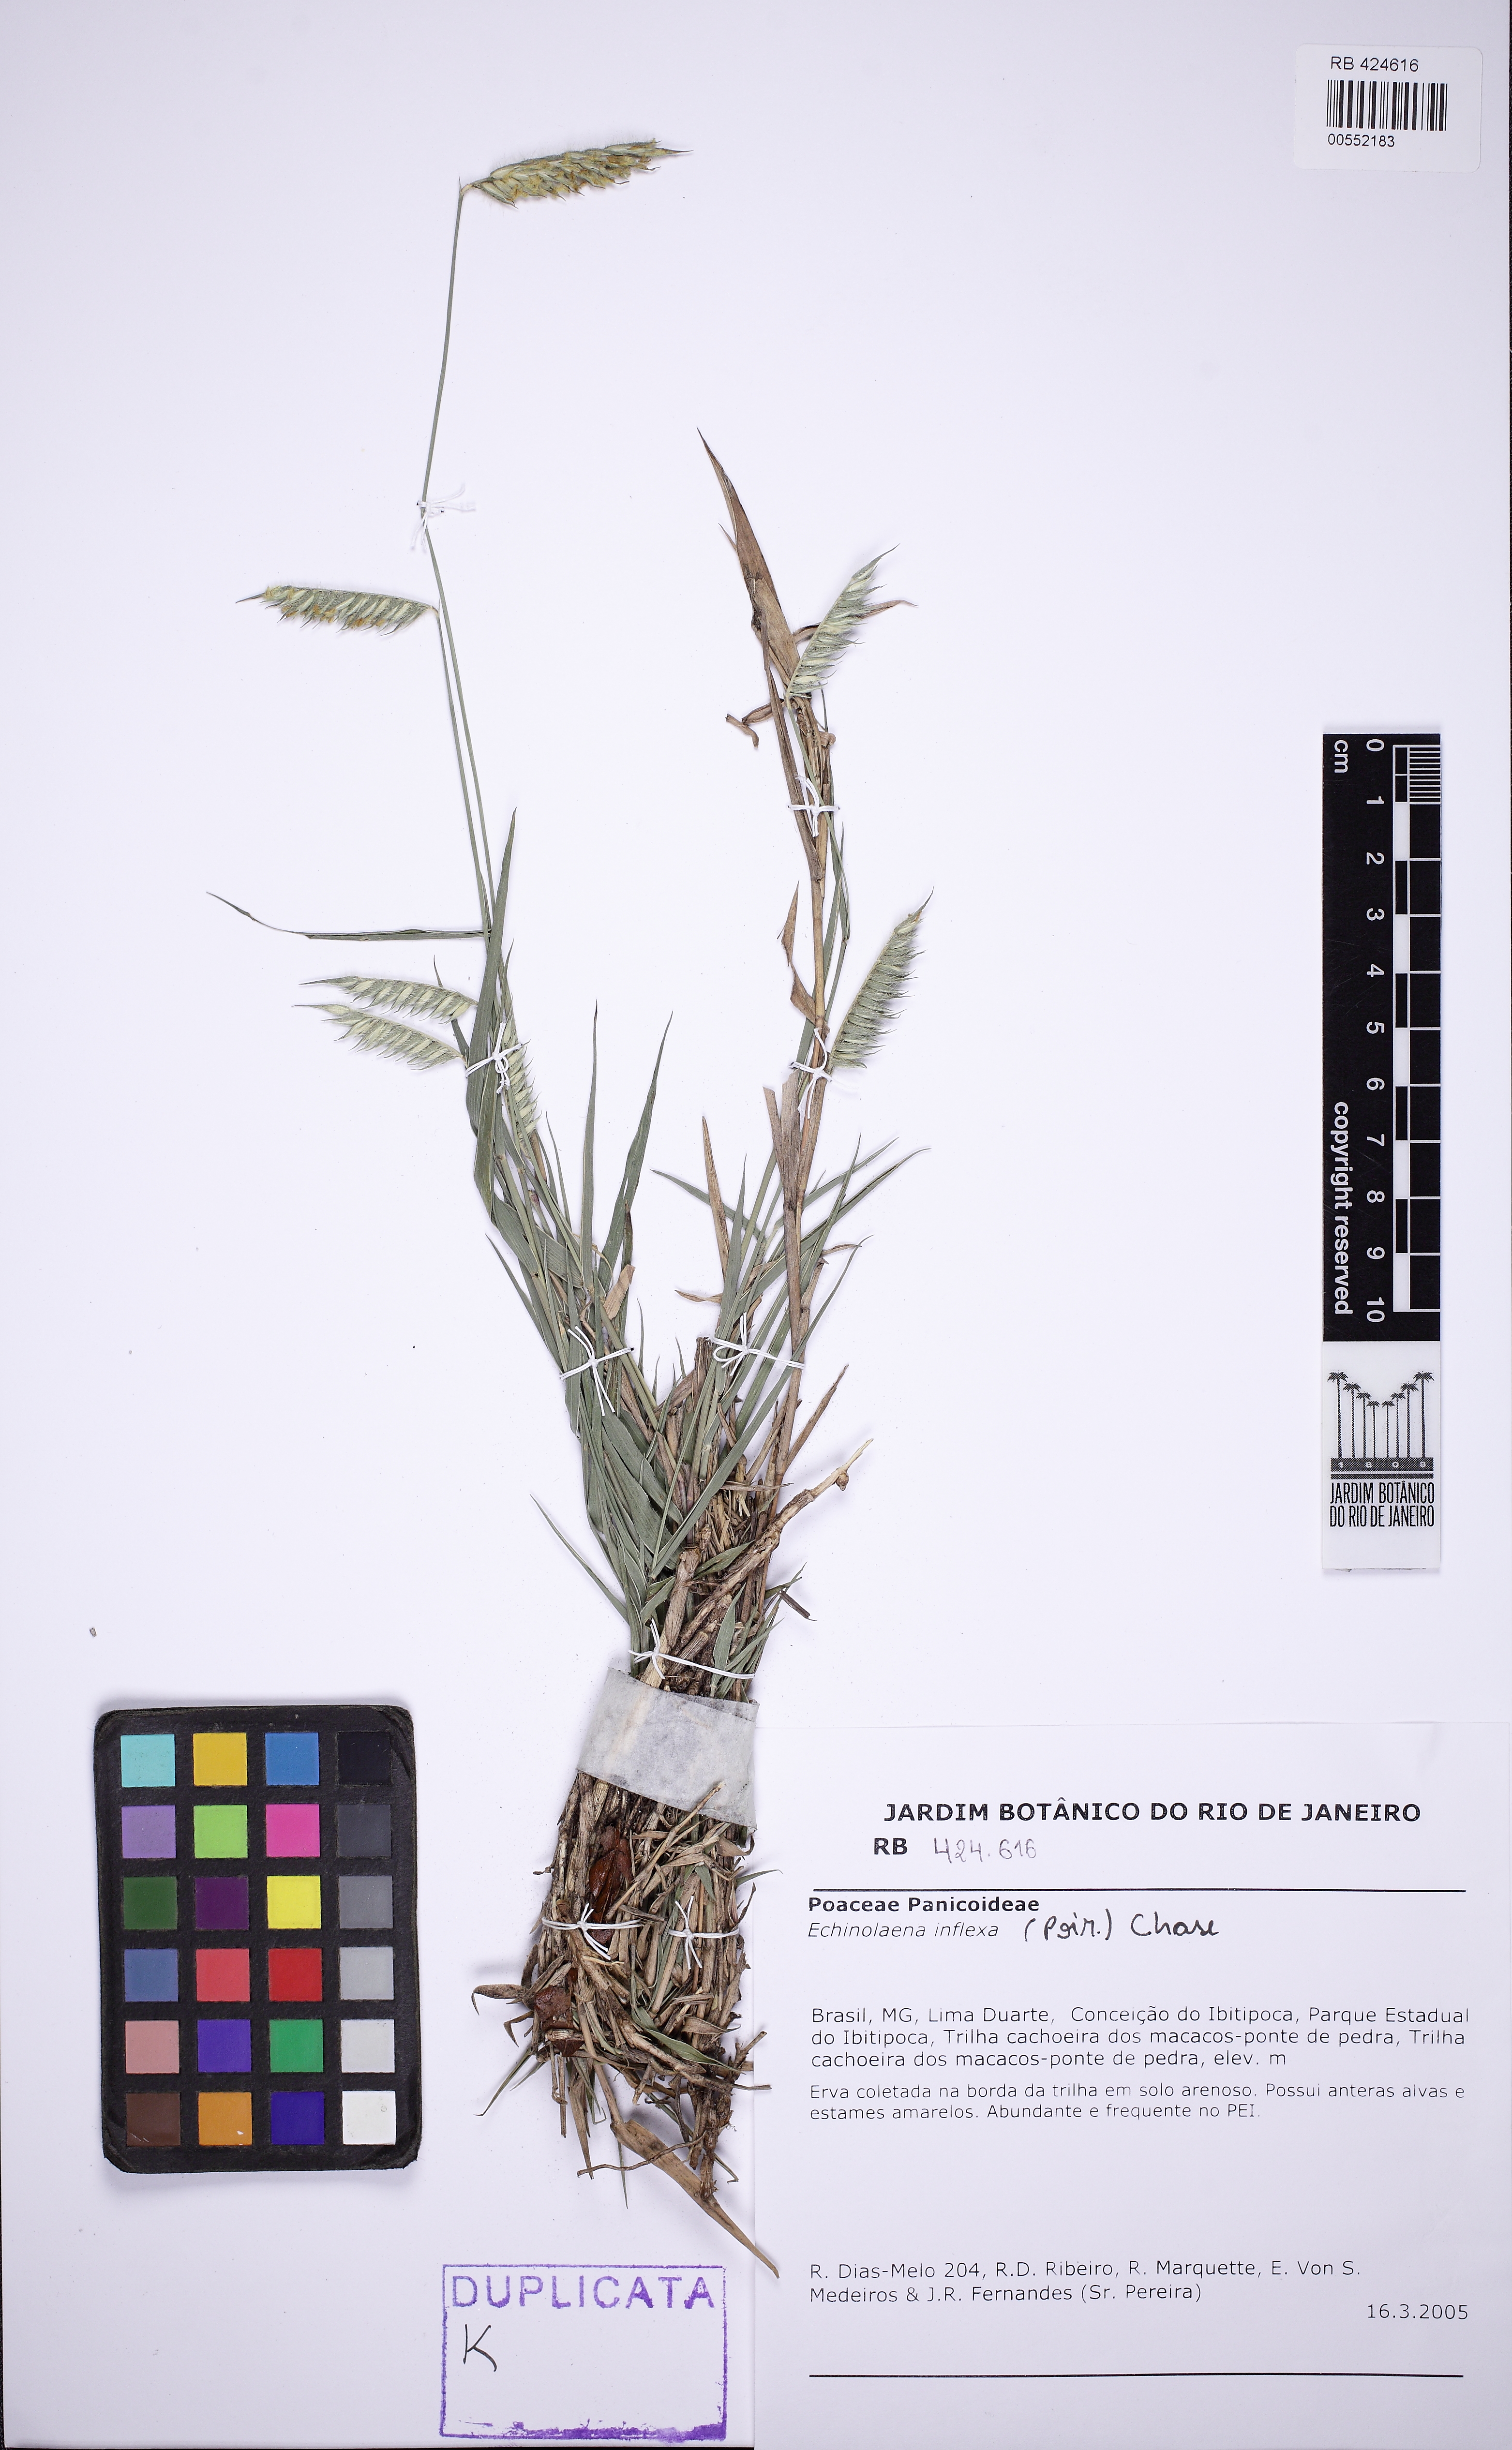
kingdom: Plantae
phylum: Tracheophyta
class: Liliopsida
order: Poales
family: Poaceae
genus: Echinolaena
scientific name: Echinolaena inflexa
